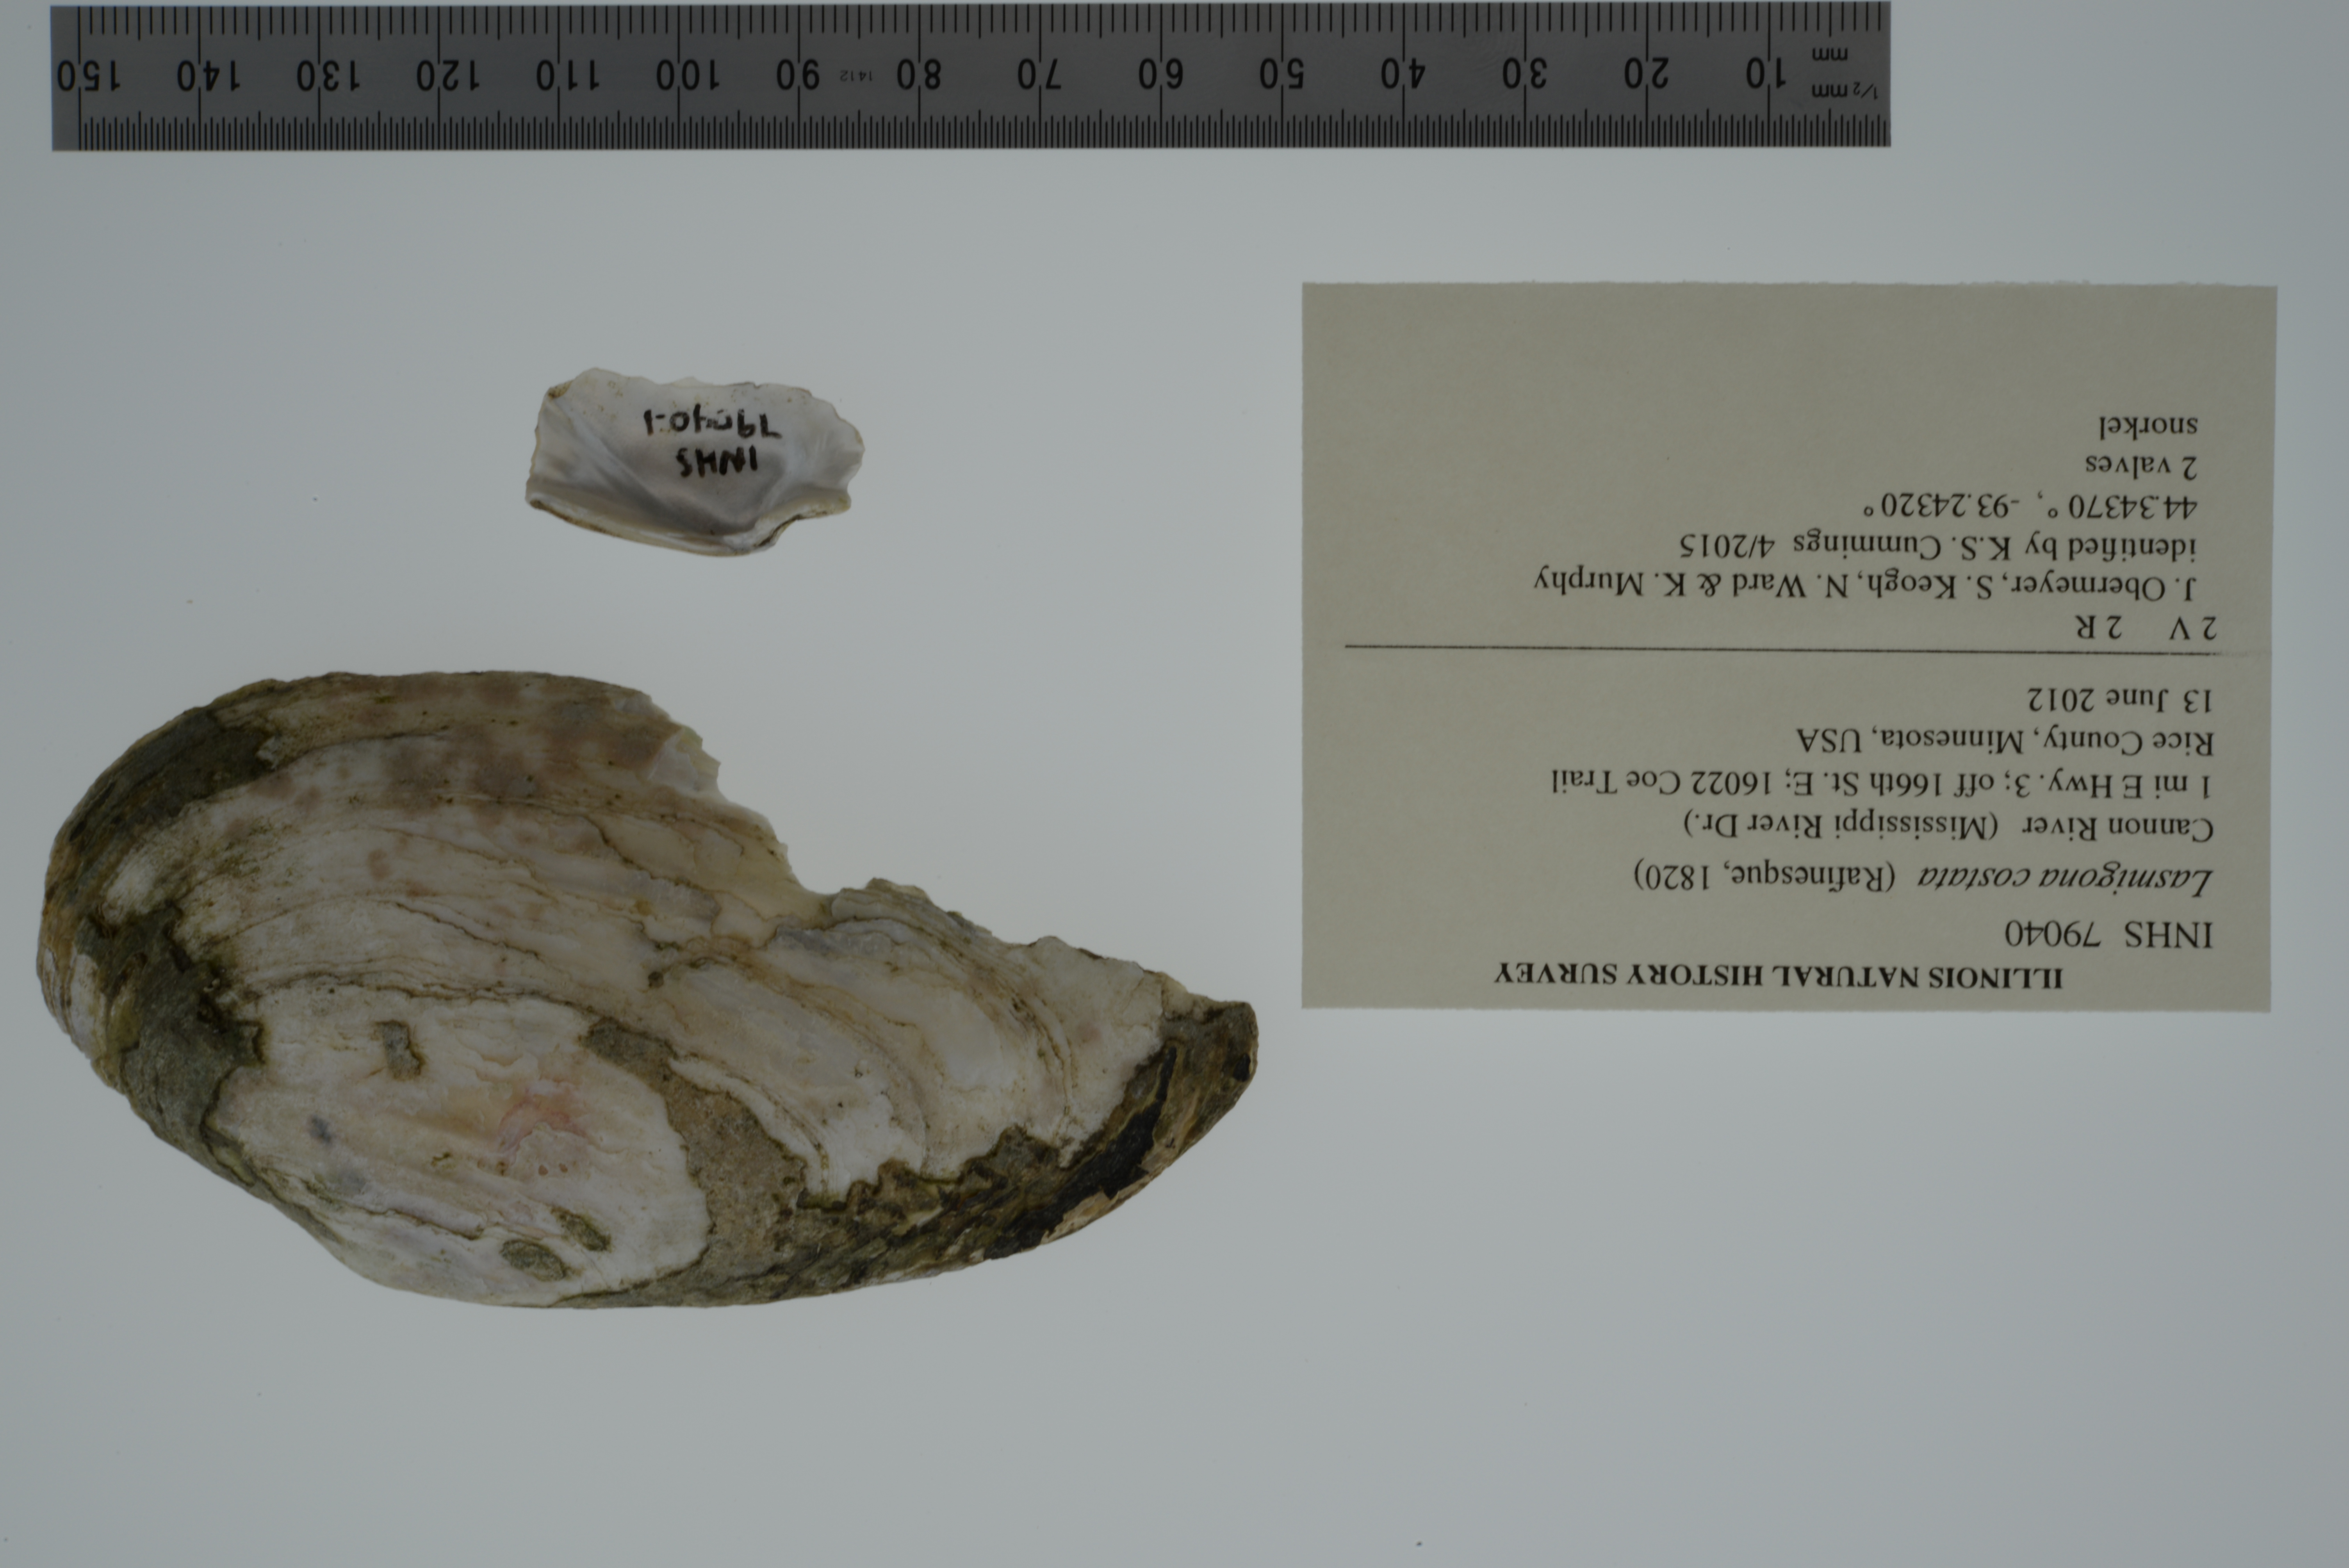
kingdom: Animalia
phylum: Mollusca
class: Bivalvia
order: Unionida
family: Unionidae
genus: Lasmigona
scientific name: Lasmigona costata
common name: Flutedshell
